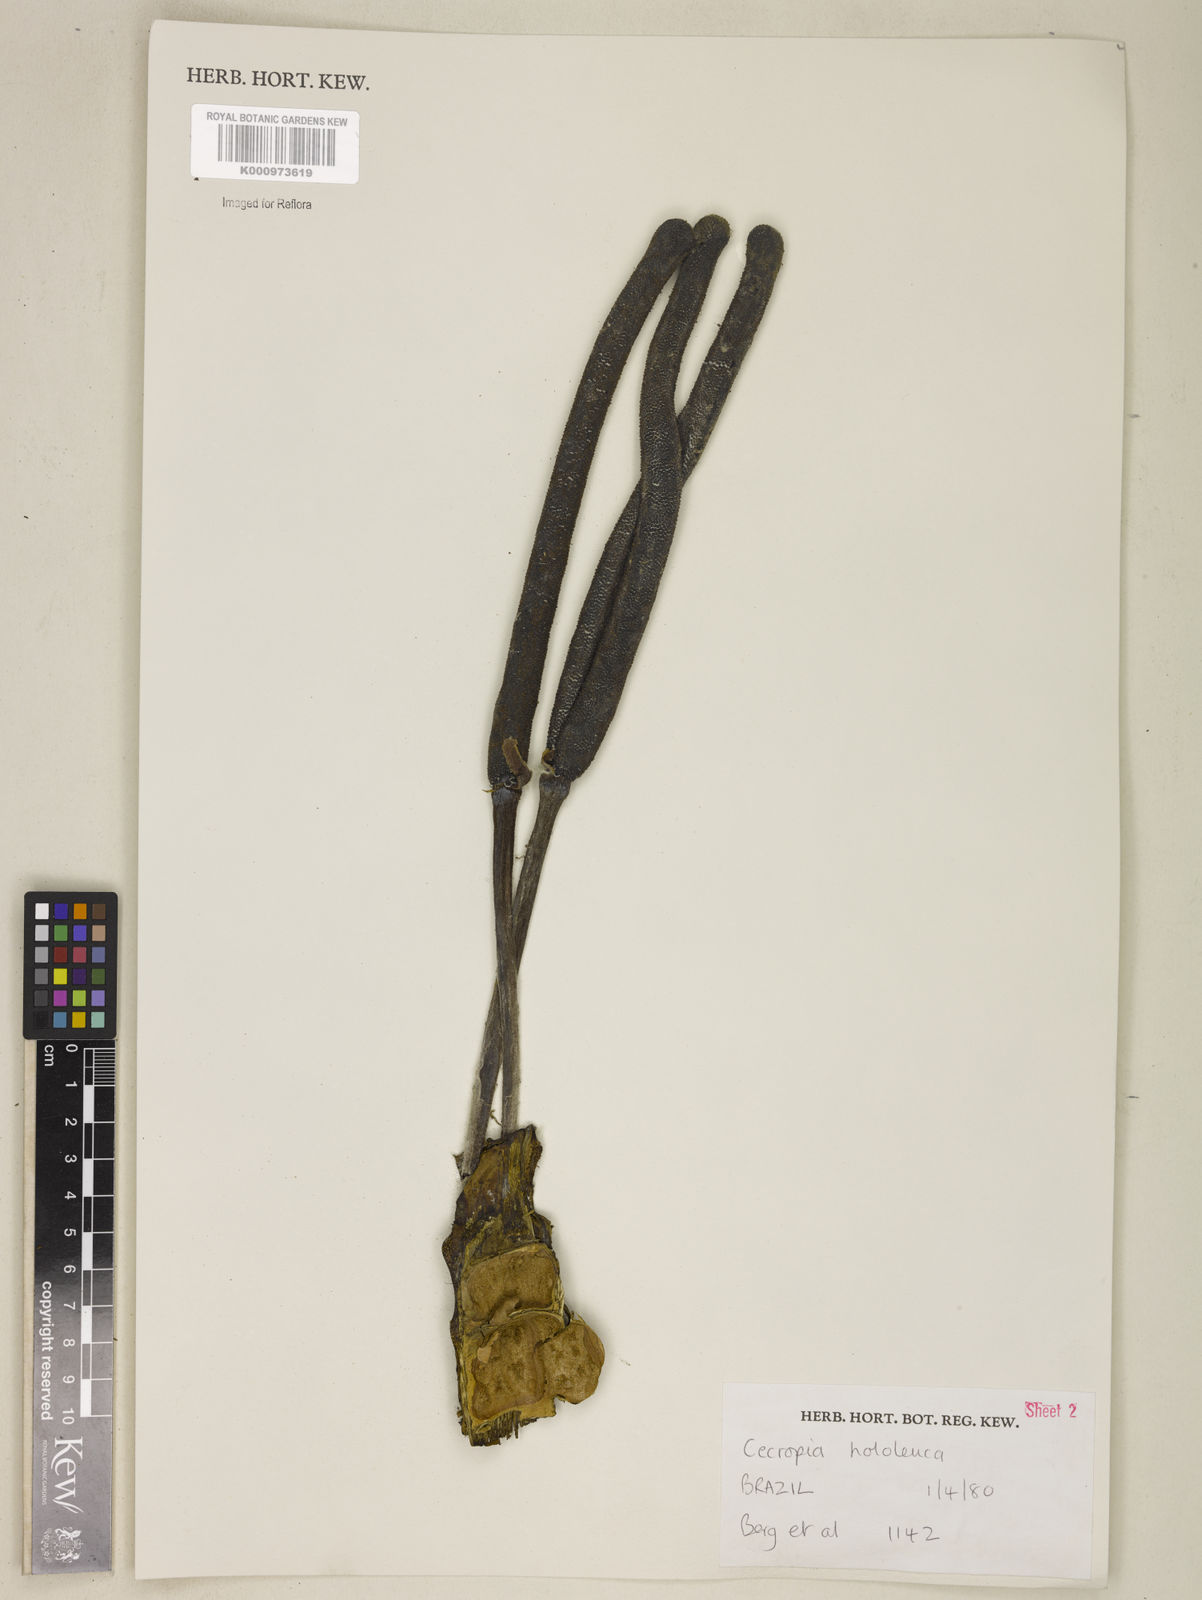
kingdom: Plantae
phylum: Tracheophyta
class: Magnoliopsida
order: Rosales
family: Urticaceae
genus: Cecropia
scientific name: Cecropia hololeuca
